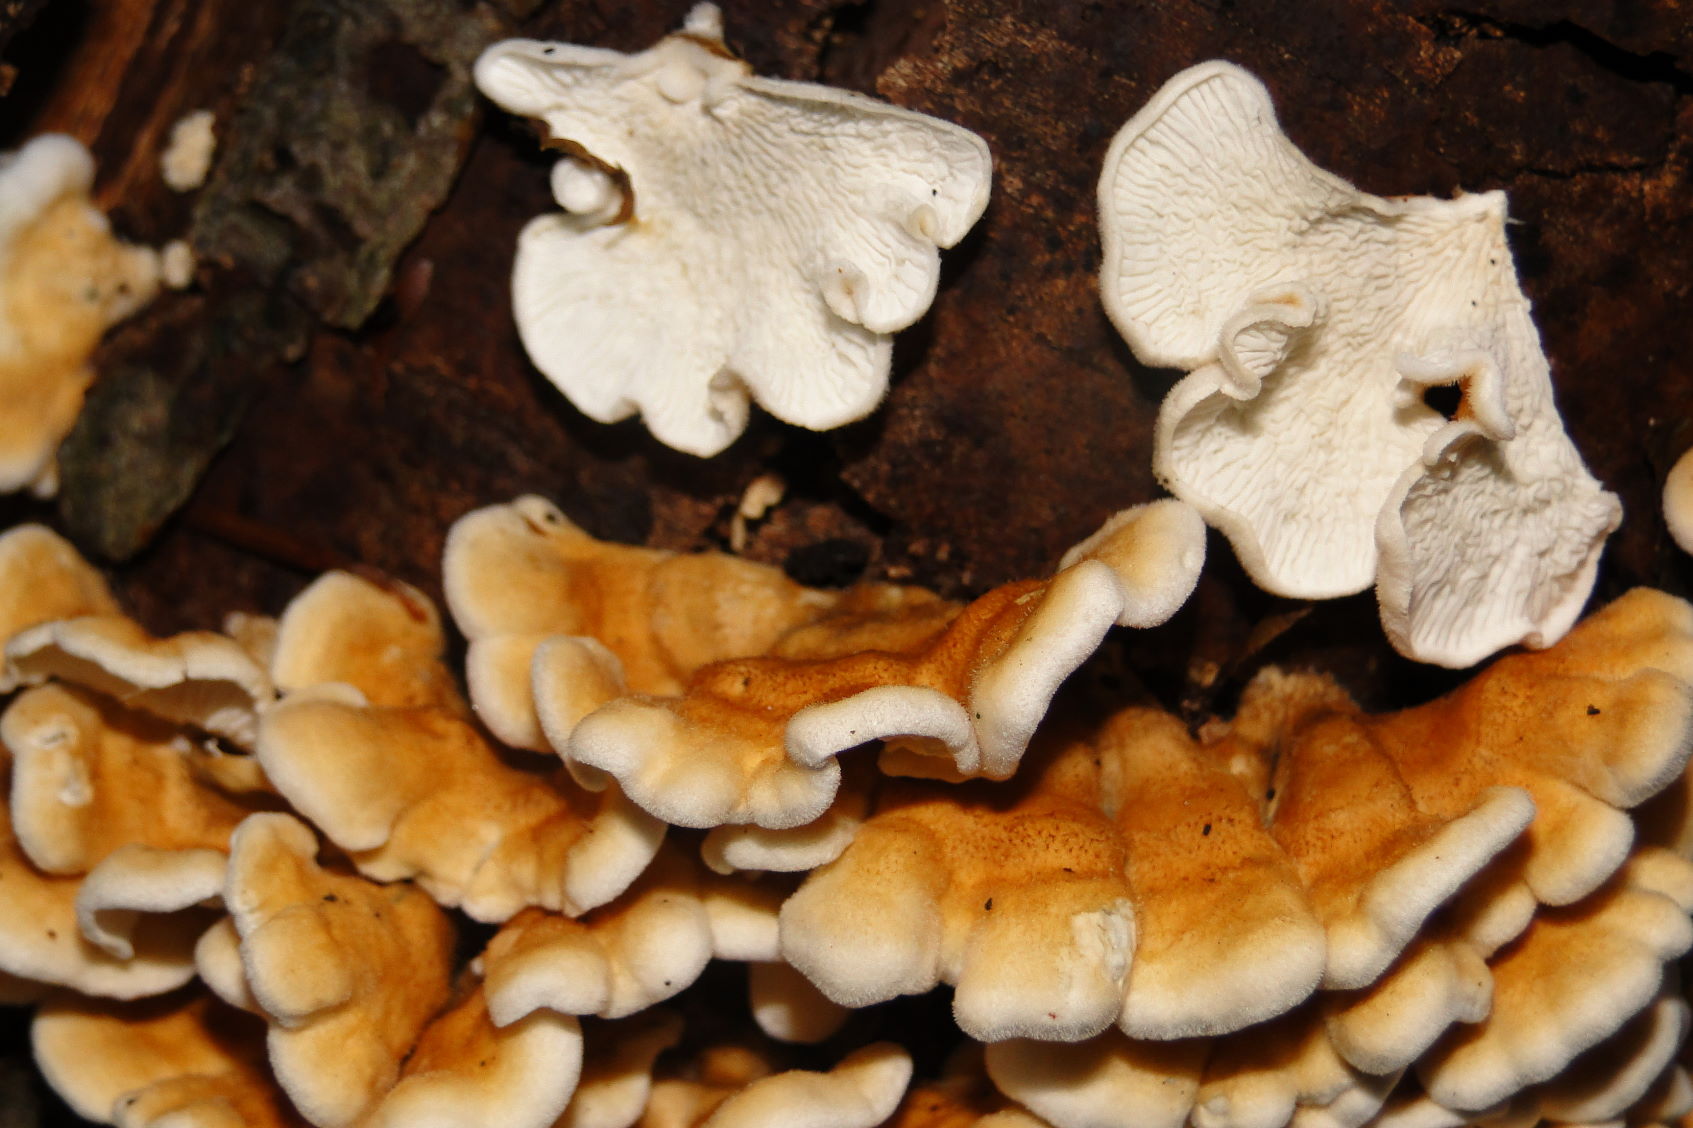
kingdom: Fungi
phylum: Basidiomycota
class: Agaricomycetes
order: Amylocorticiales
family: Amylocorticiaceae
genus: Plicaturopsis
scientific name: Plicaturopsis crispa
